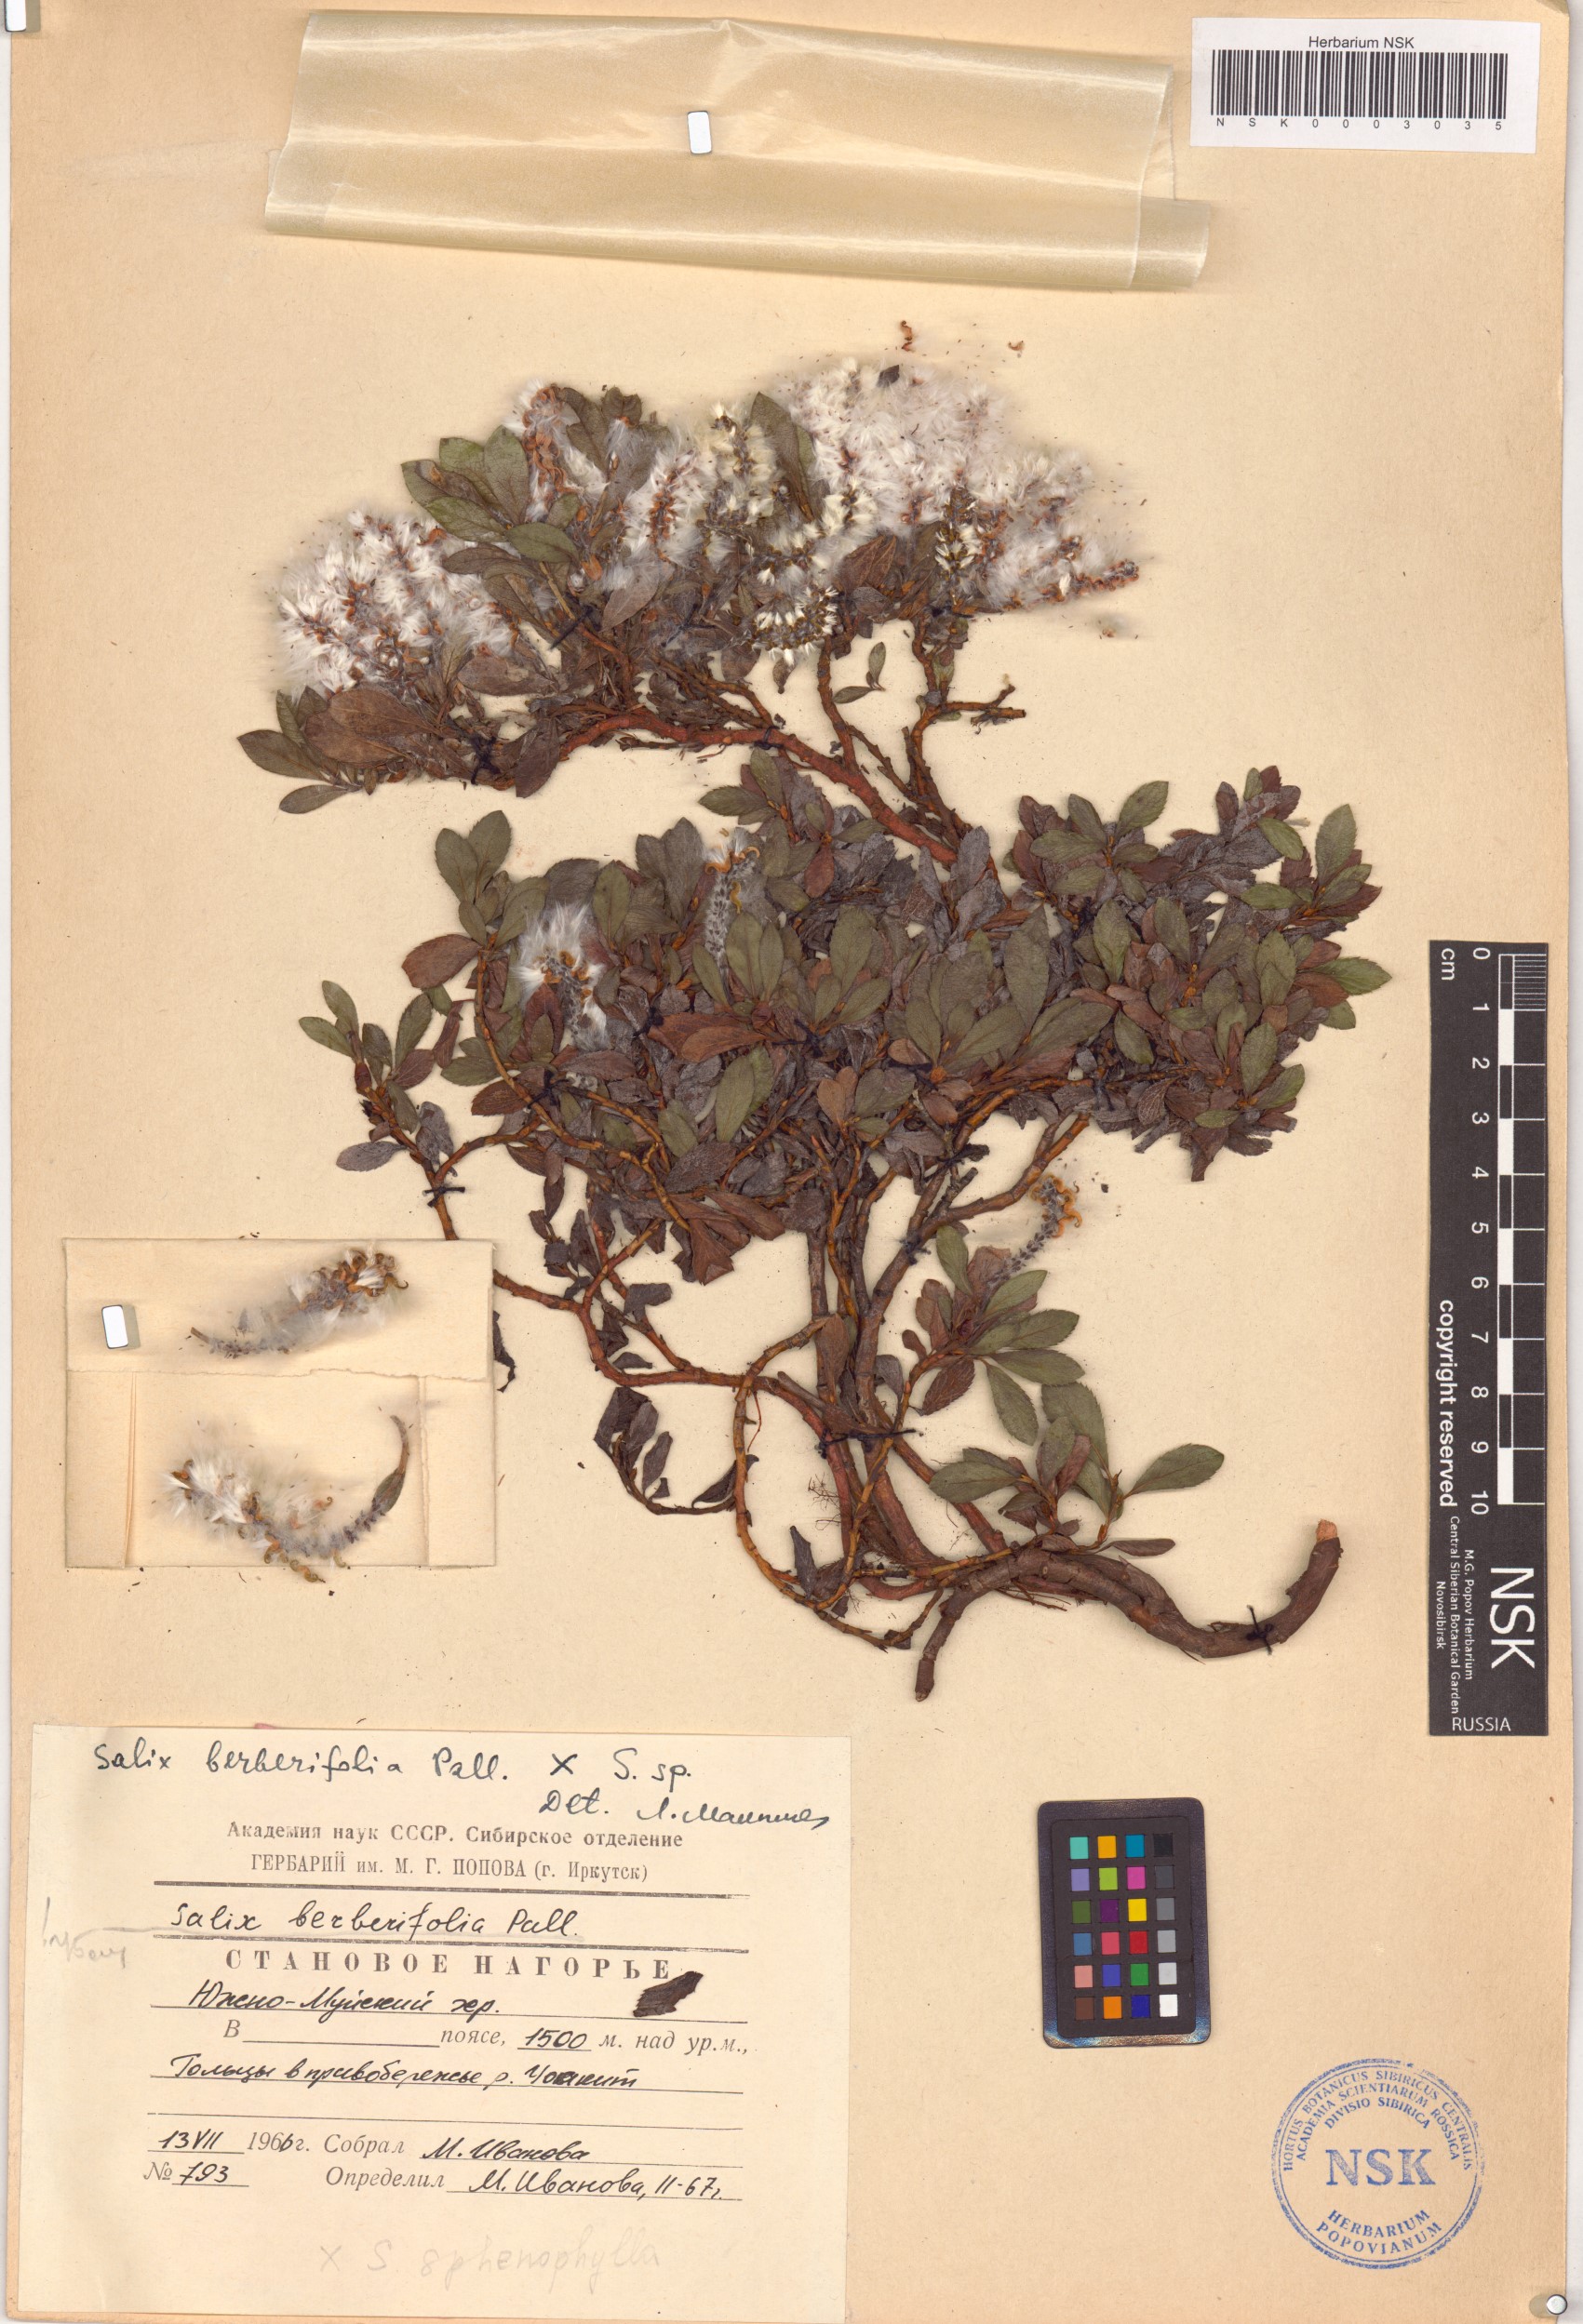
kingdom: Plantae
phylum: Tracheophyta
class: Magnoliopsida
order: Malpighiales
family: Salicaceae
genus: Salix
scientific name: Salix berberifolia
